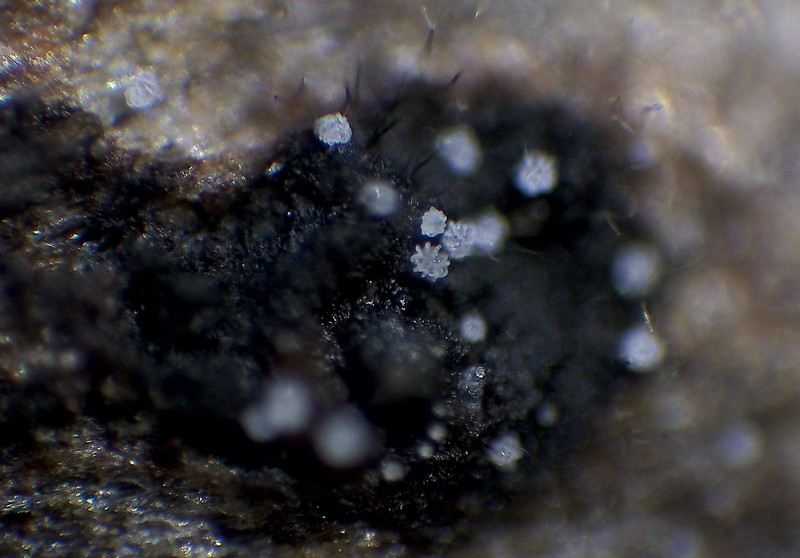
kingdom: Fungi
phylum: Basidiomycota
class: Agaricomycetes
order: Agaricales
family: Niaceae
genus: Peyronelina
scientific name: Peyronelina glomerulata
